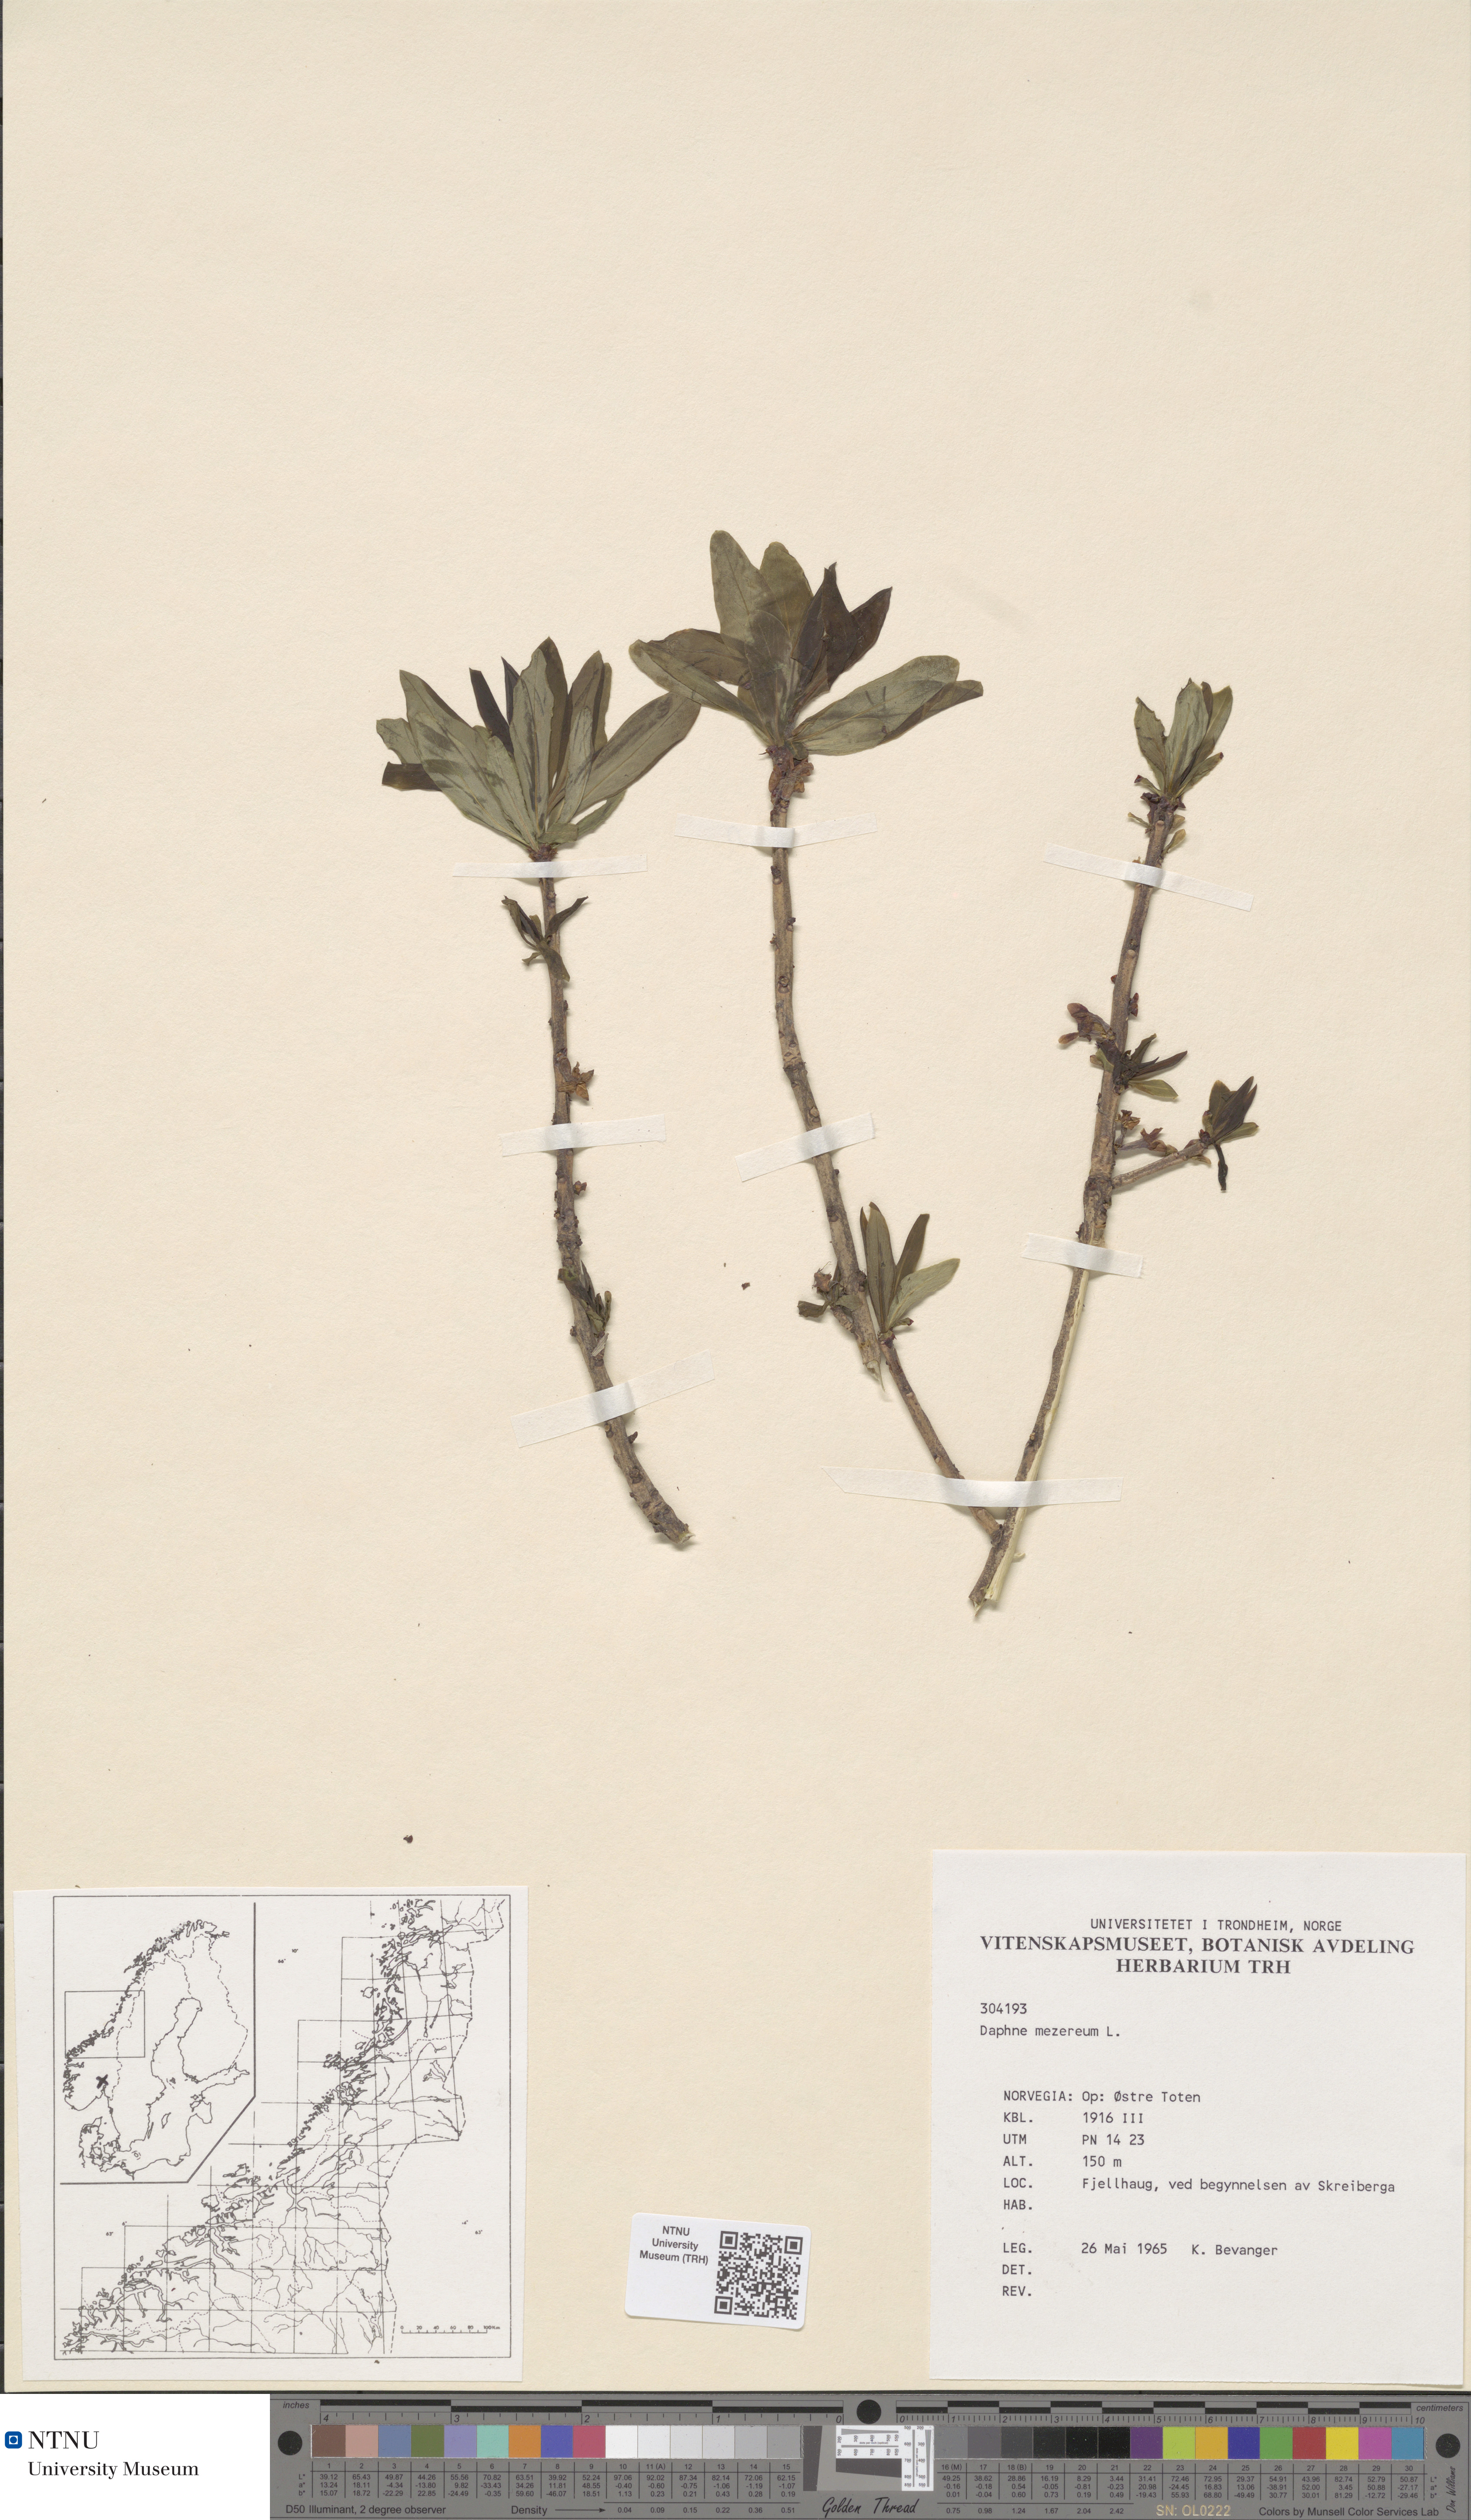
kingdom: Plantae
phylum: Tracheophyta
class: Magnoliopsida
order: Malvales
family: Thymelaeaceae
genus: Daphne
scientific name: Daphne mezereum
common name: Mezereon
